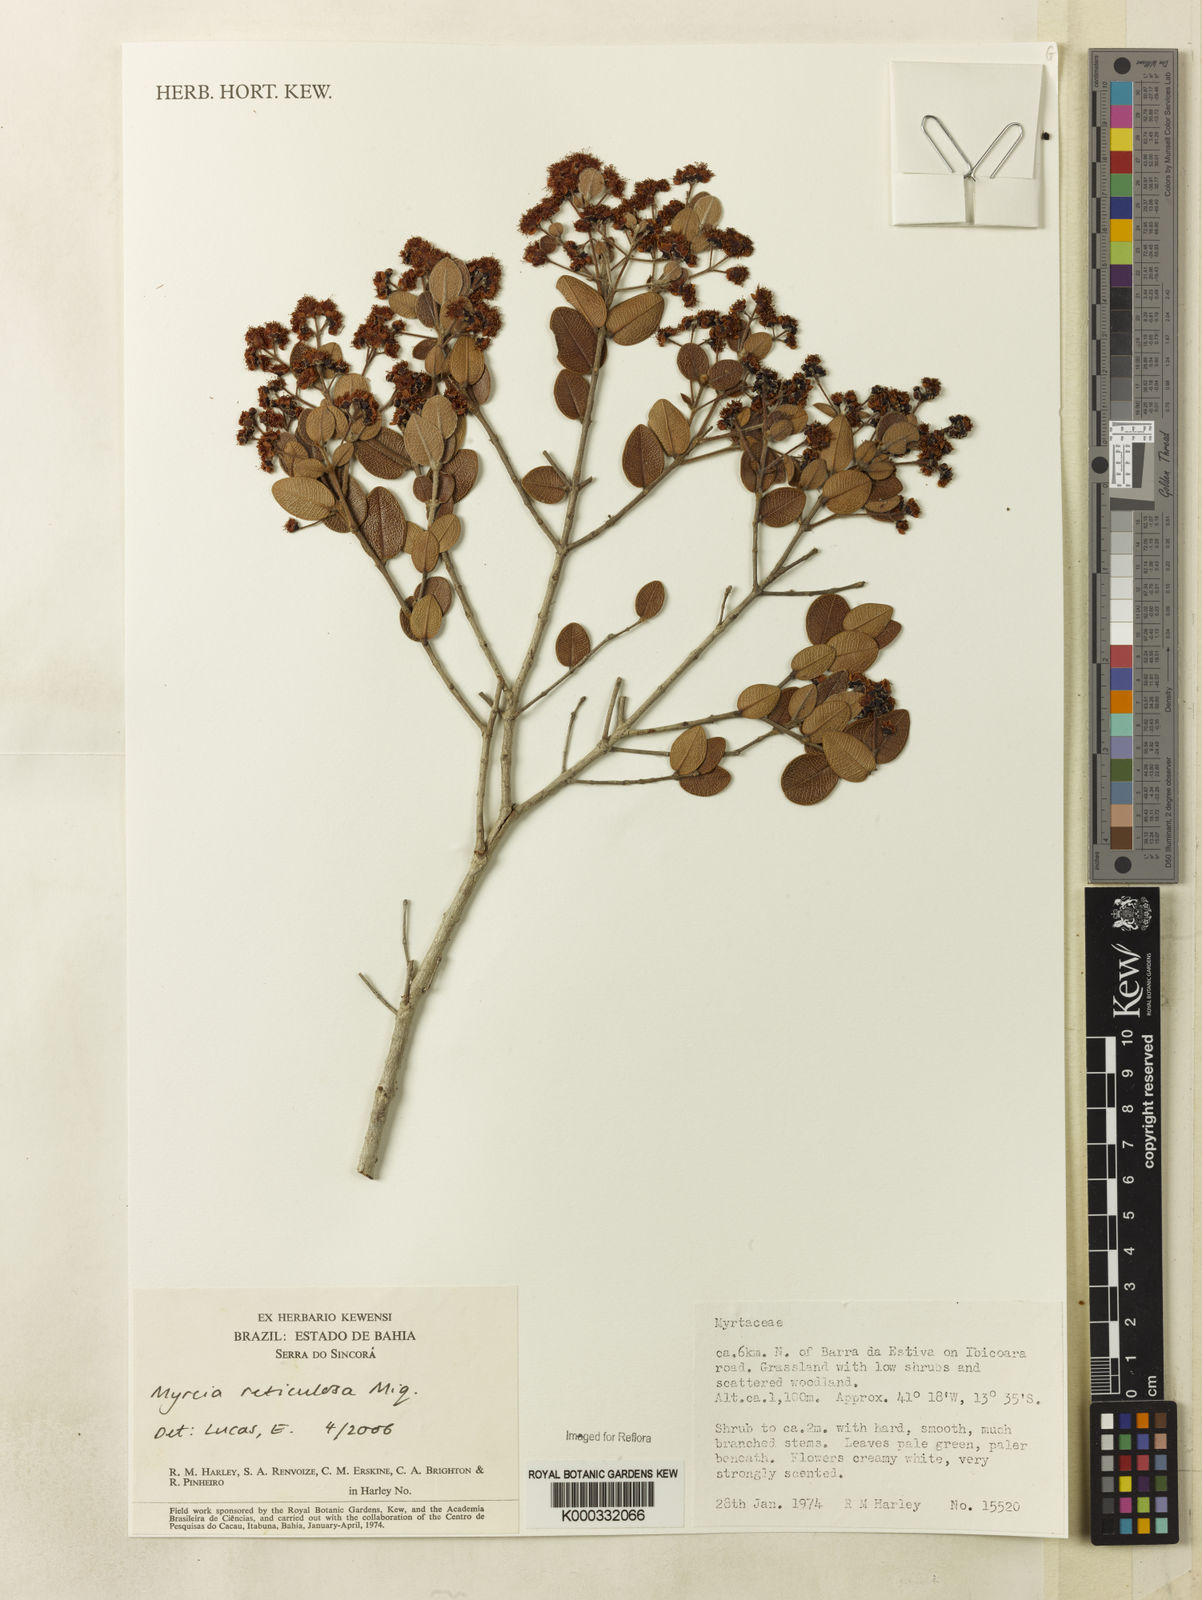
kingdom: Plantae
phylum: Tracheophyta
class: Magnoliopsida
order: Myrtales
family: Myrtaceae
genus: Myrcia
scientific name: Myrcia reticulosa
